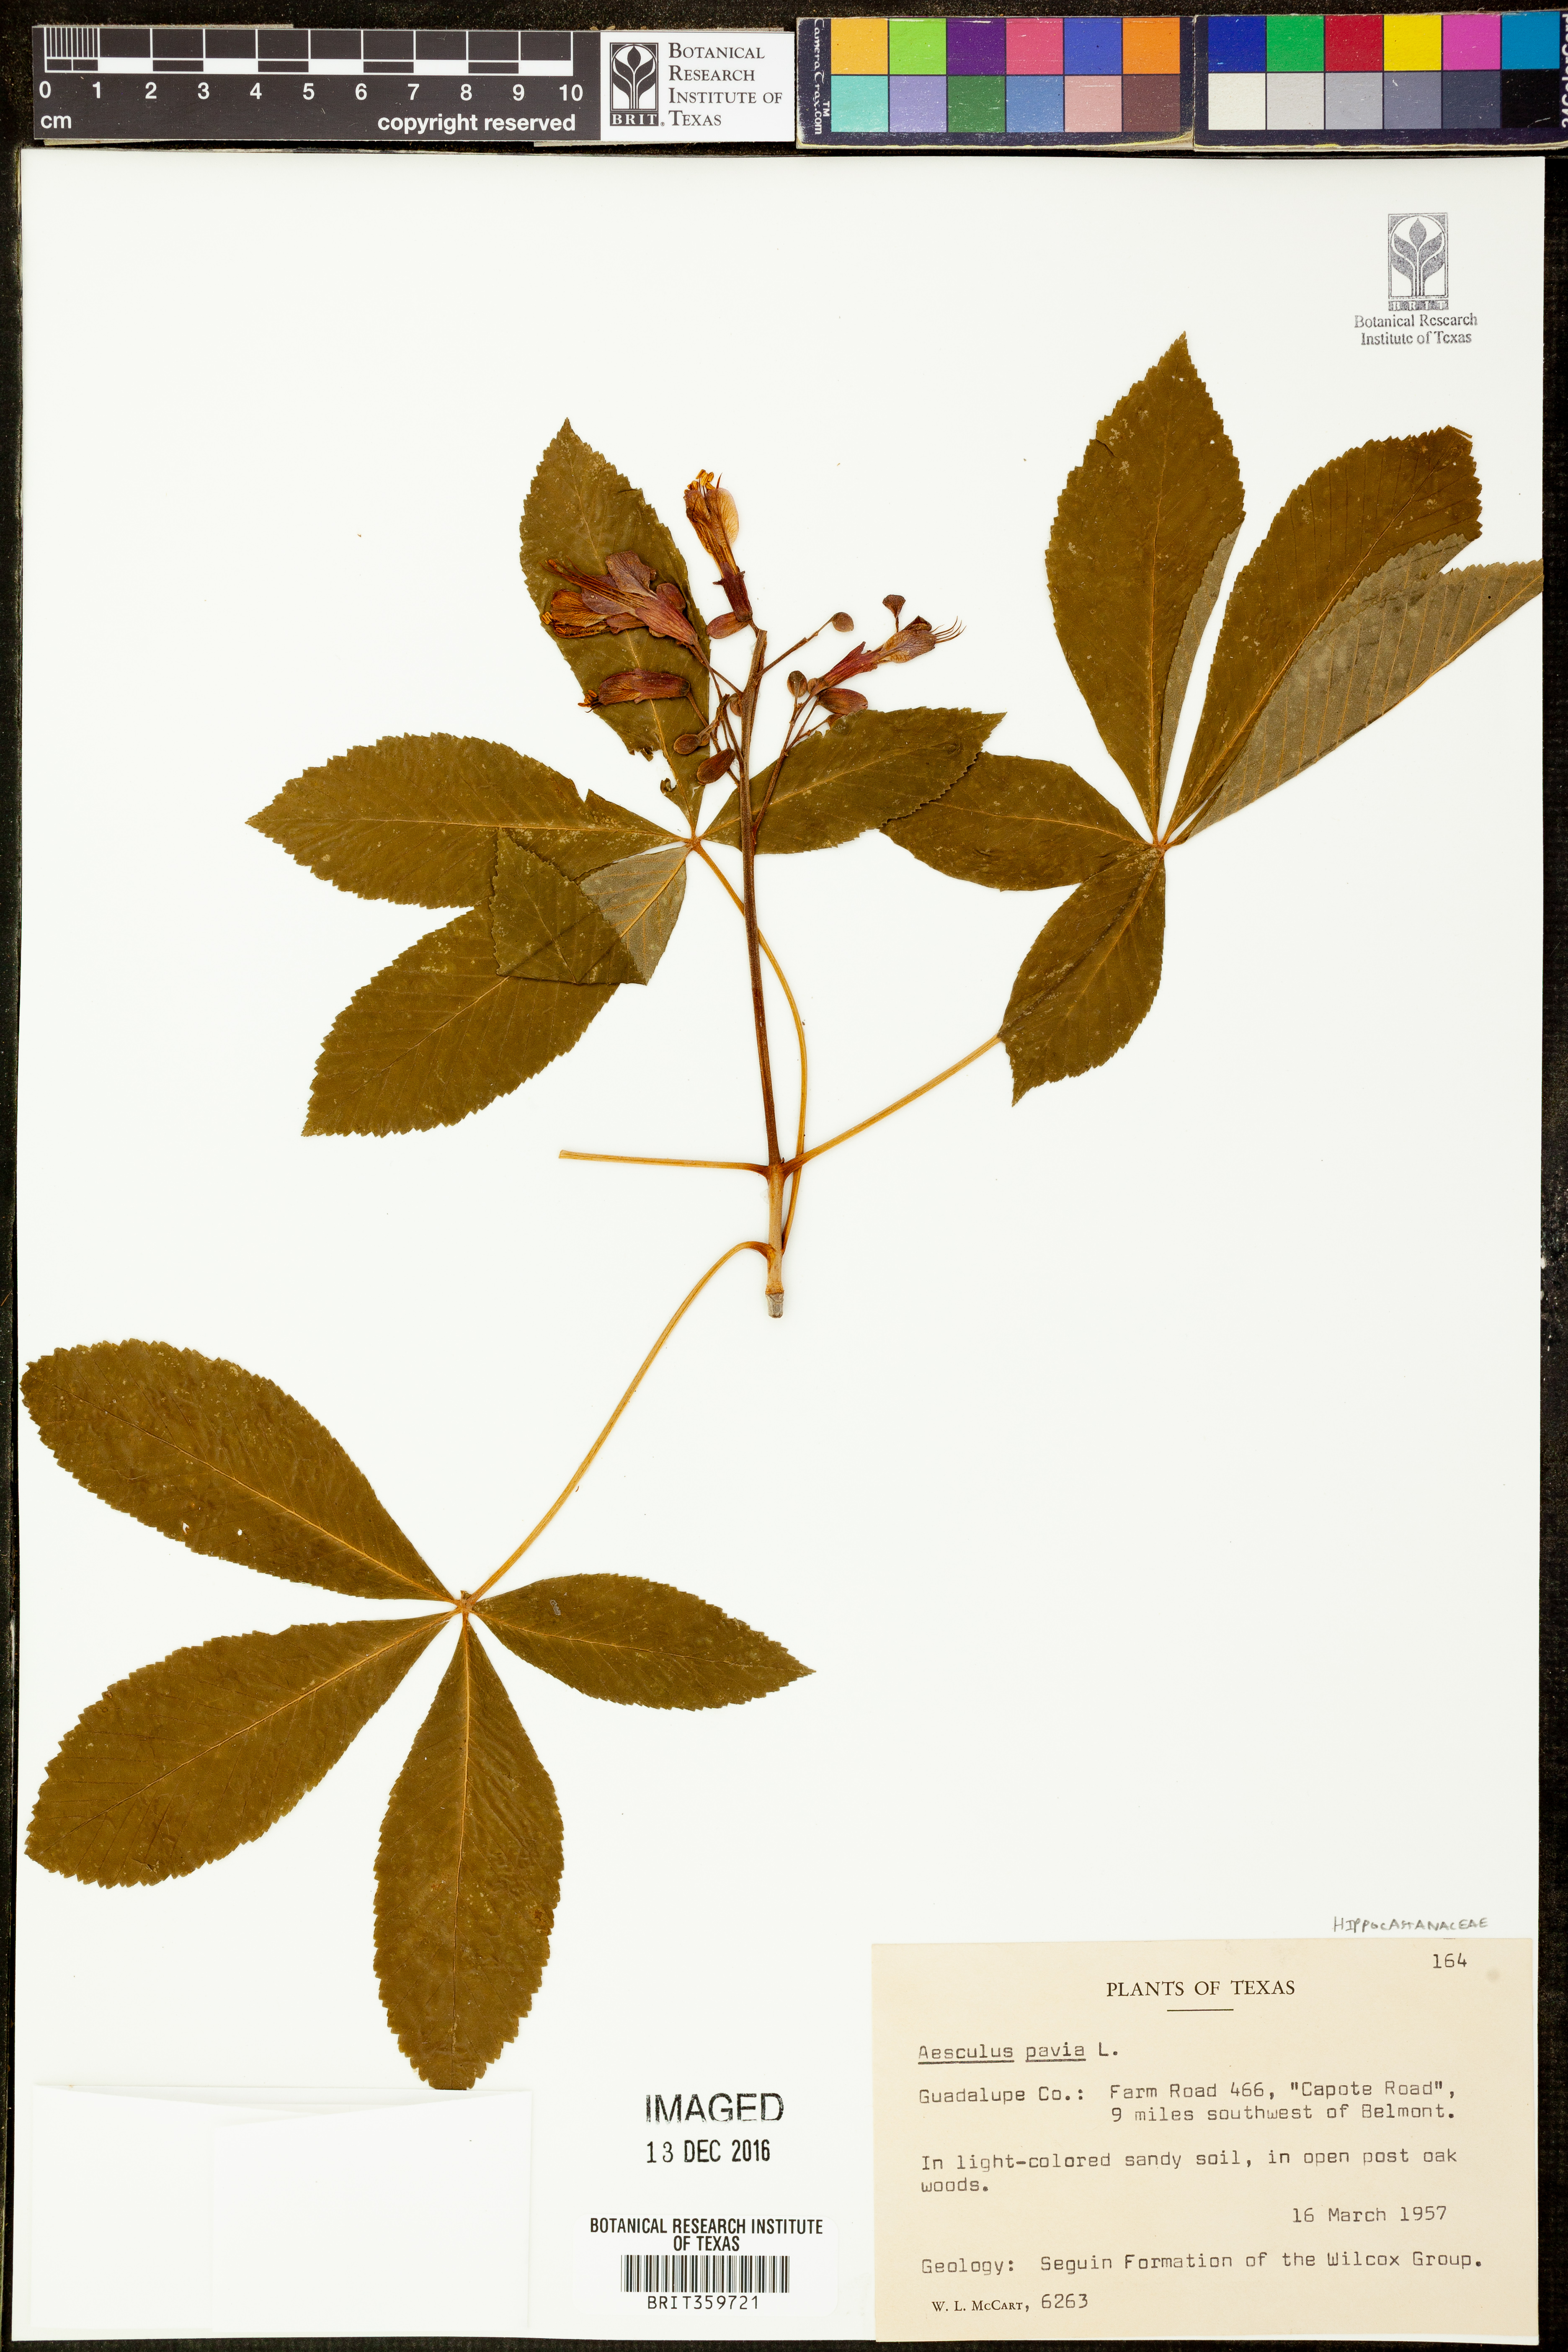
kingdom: Plantae
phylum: Tracheophyta
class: Magnoliopsida
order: Sapindales
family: Sapindaceae
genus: Aesculus
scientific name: Aesculus pavia
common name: Red buckeye
